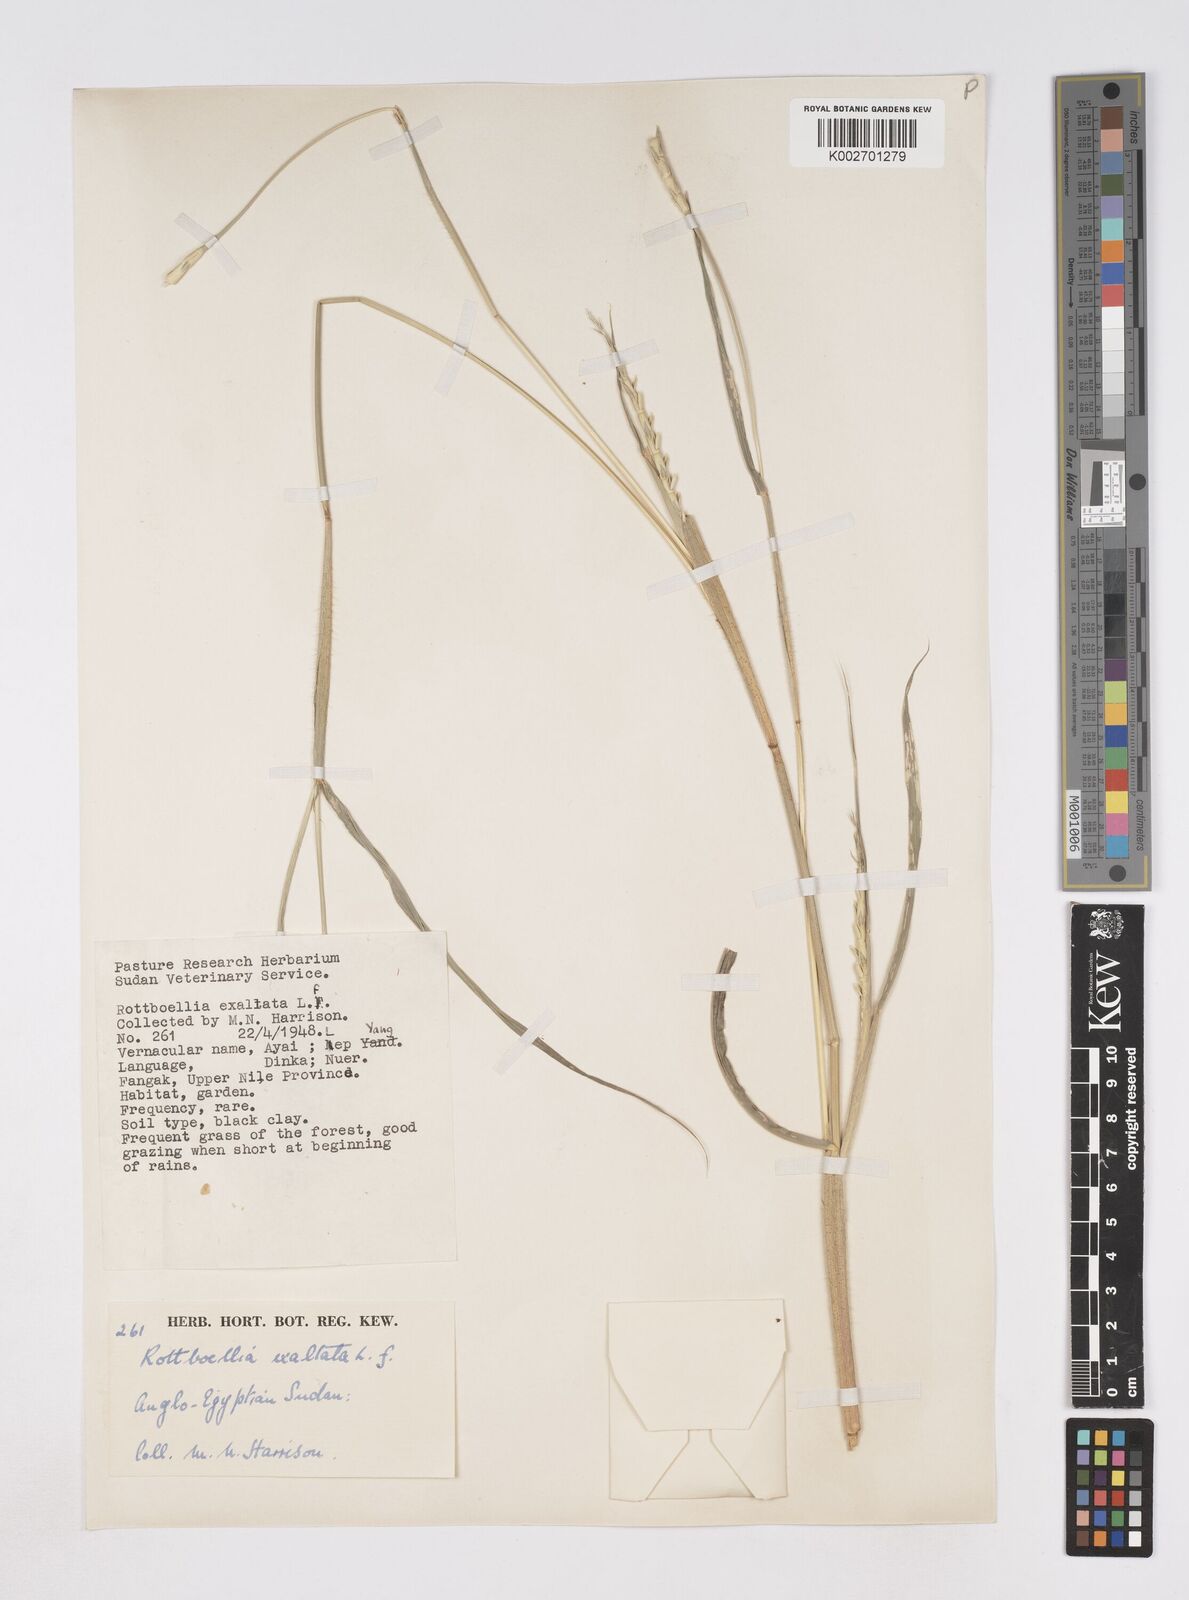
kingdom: Plantae
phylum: Tracheophyta
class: Liliopsida
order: Poales
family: Poaceae
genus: Rottboellia
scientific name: Rottboellia cochinchinensis
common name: Itchgrass
